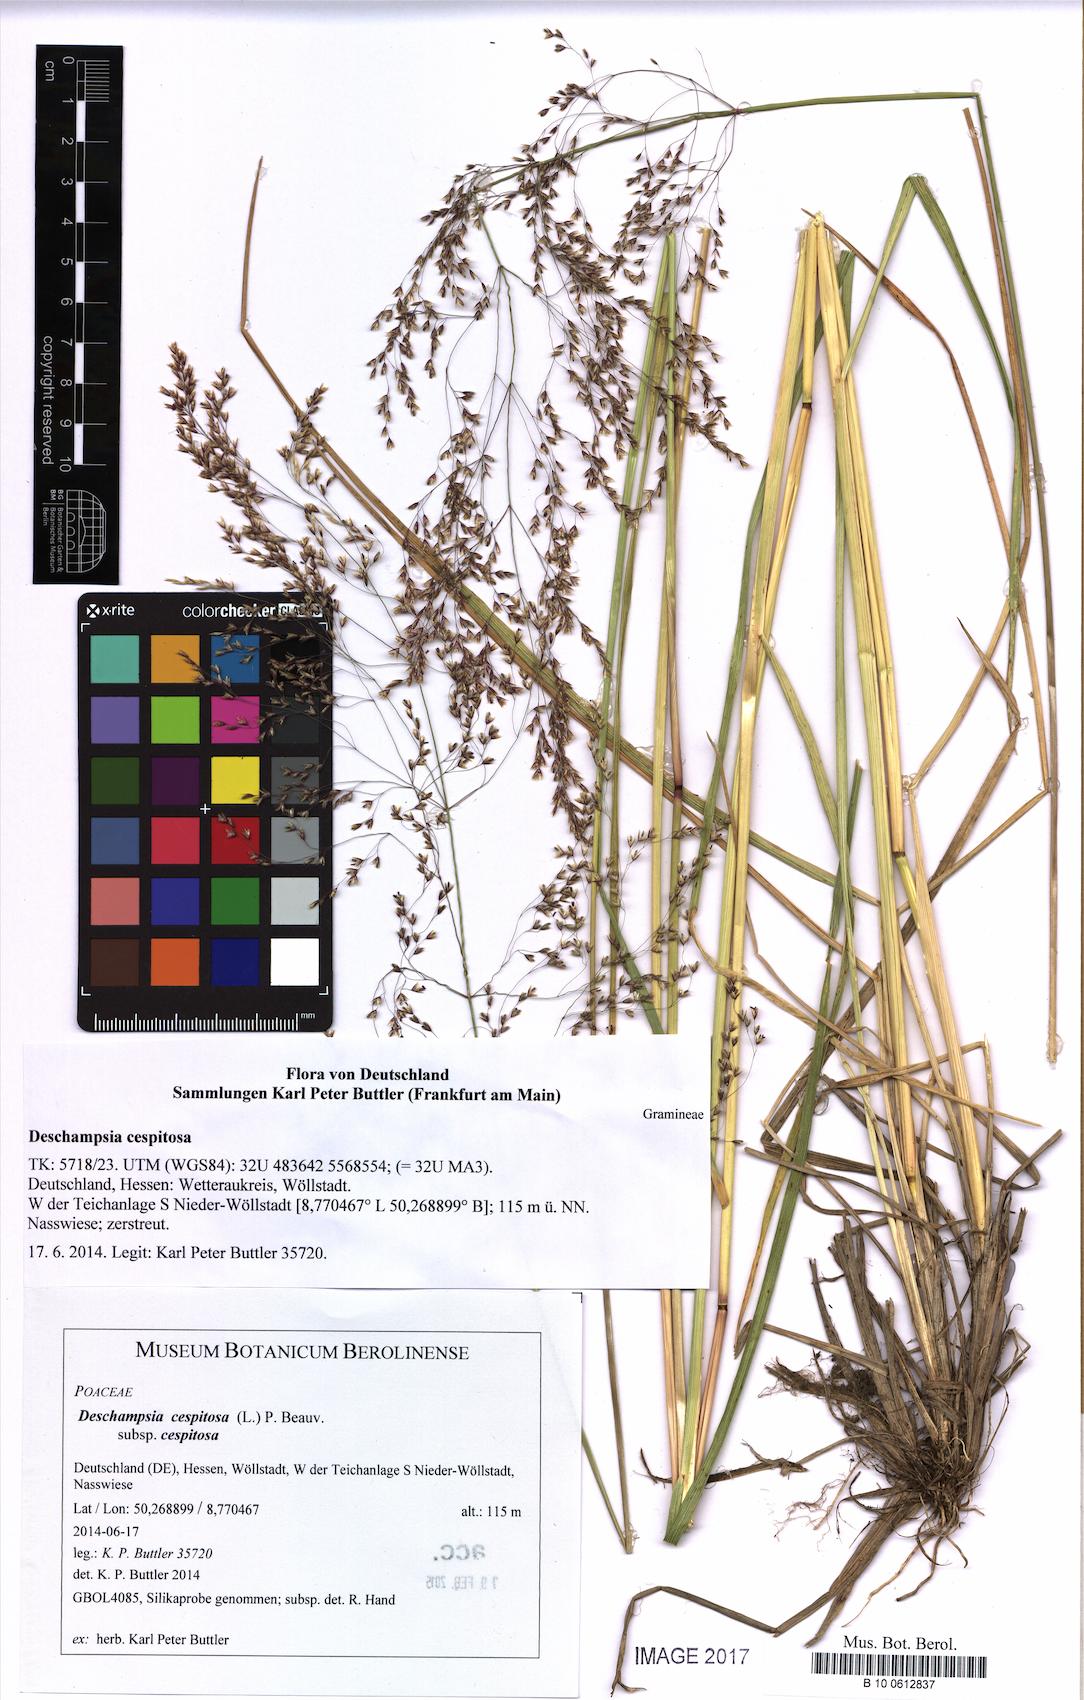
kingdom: Plantae
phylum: Tracheophyta
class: Liliopsida
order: Poales
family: Poaceae
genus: Deschampsia
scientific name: Deschampsia cespitosa
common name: Tufted hair-grass
